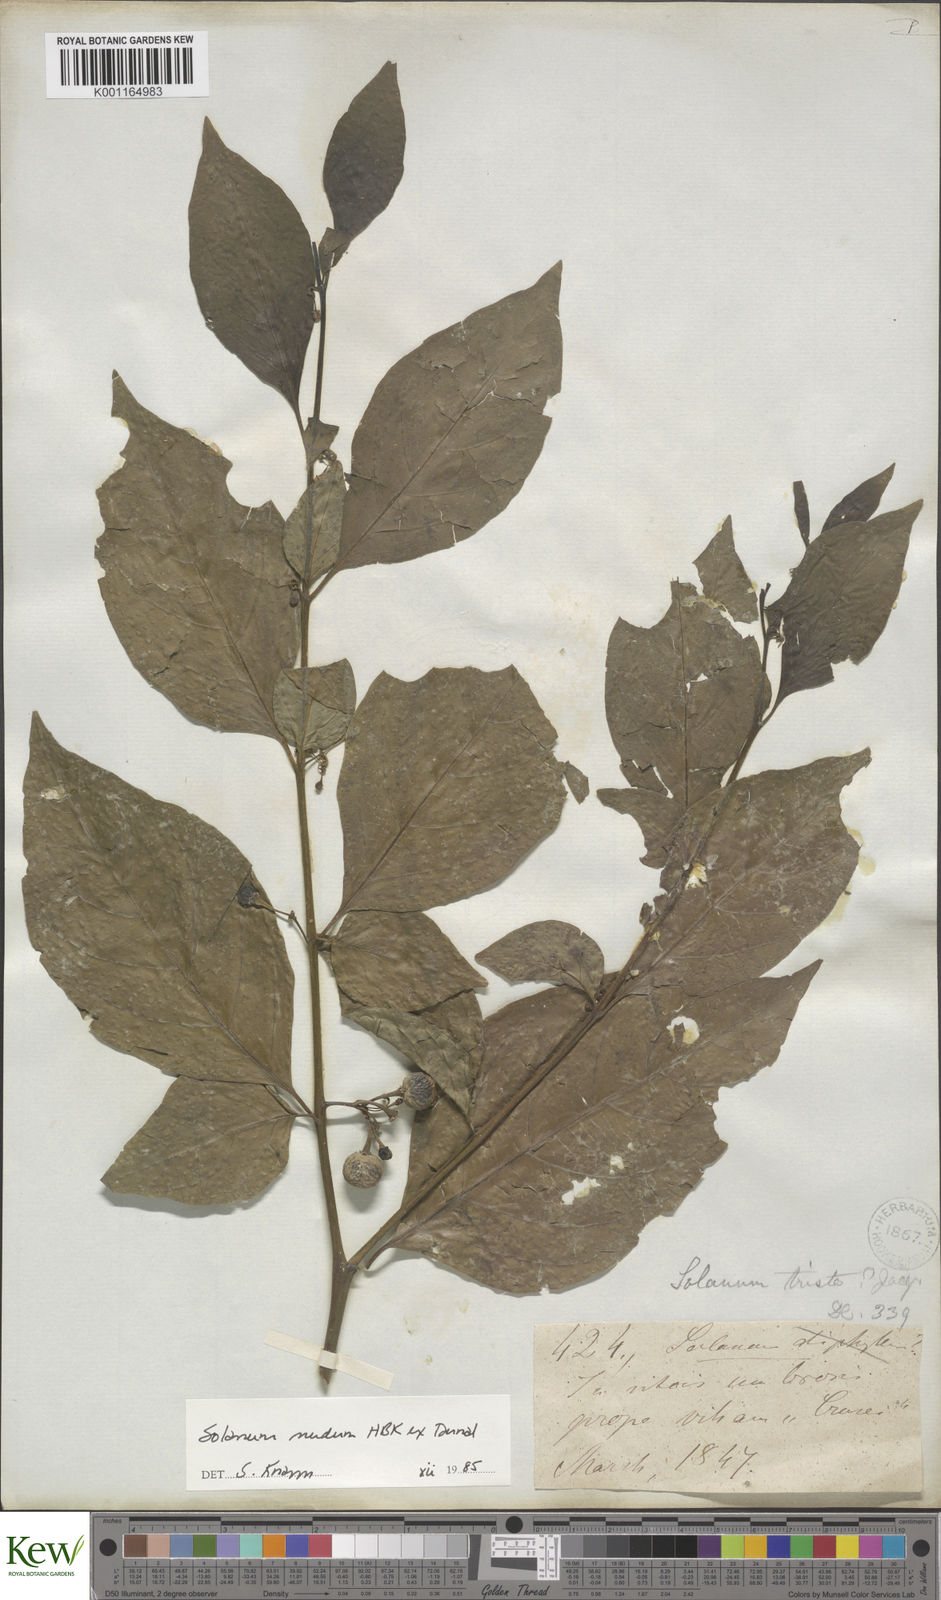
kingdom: Plantae
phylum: Tracheophyta
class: Magnoliopsida
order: Solanales
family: Solanaceae
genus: Solanum
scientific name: Solanum nudum
